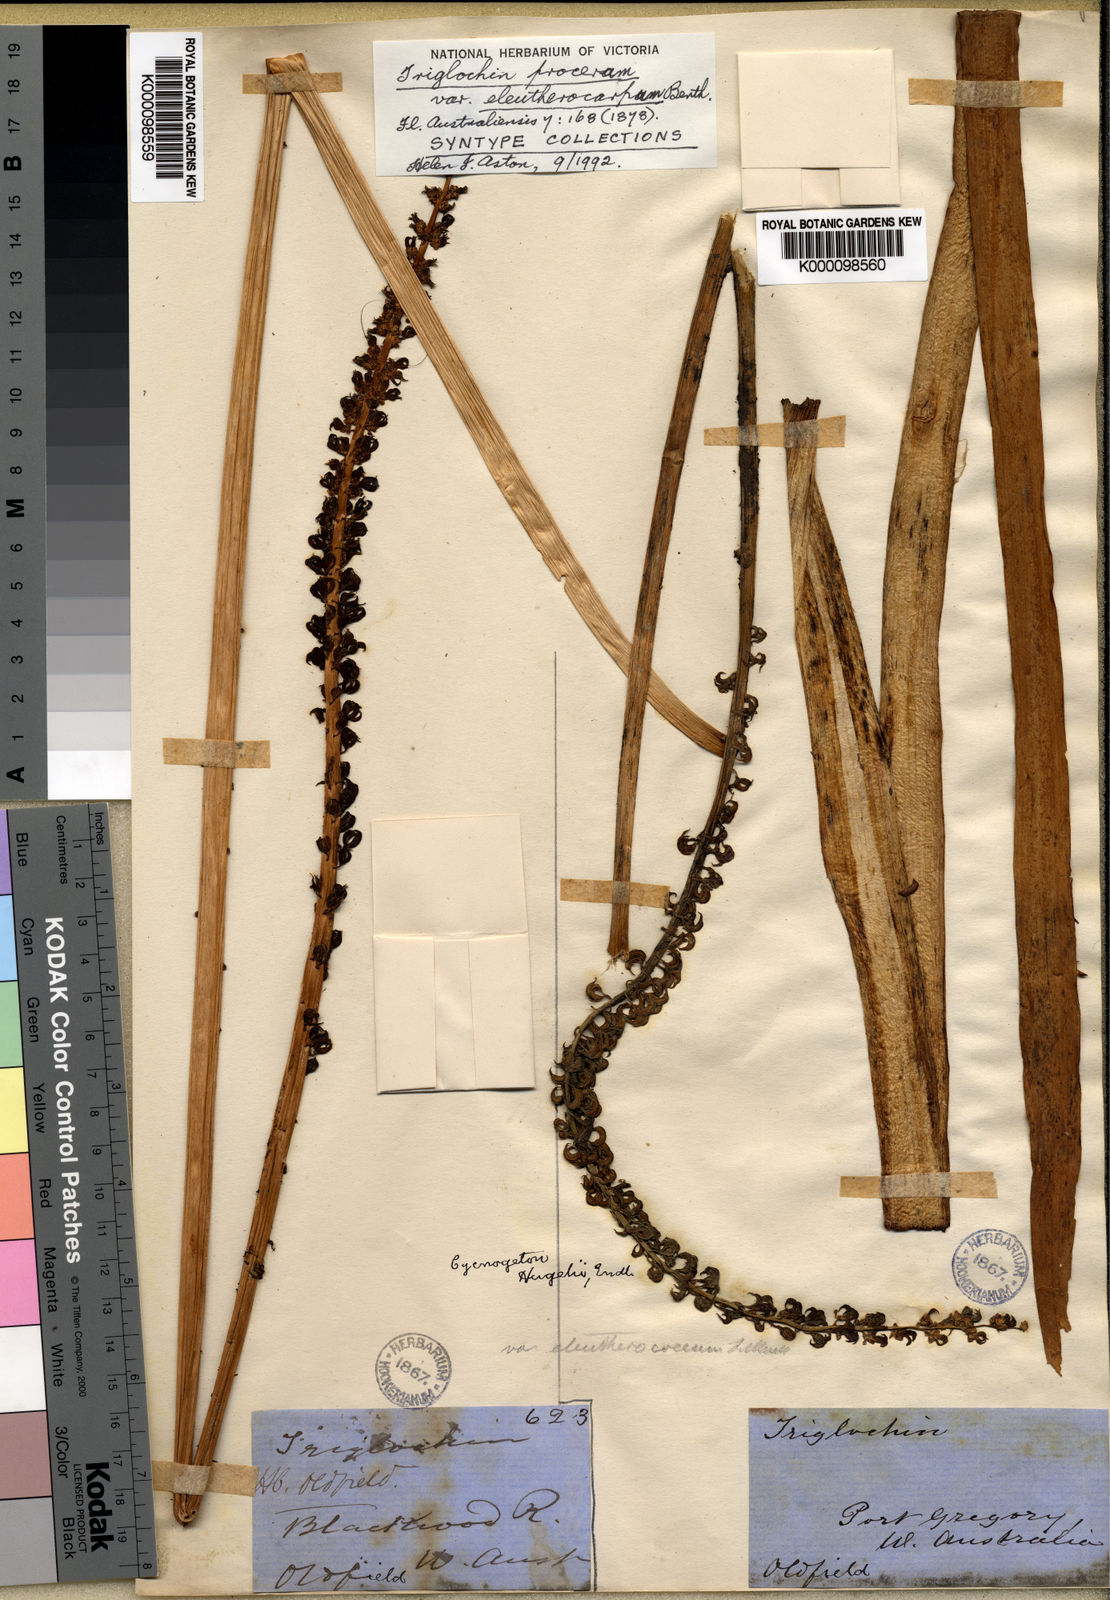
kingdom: Plantae
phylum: Tracheophyta
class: Liliopsida
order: Alismatales
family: Juncaginaceae
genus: Cycnogeton
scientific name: Cycnogeton procerum
